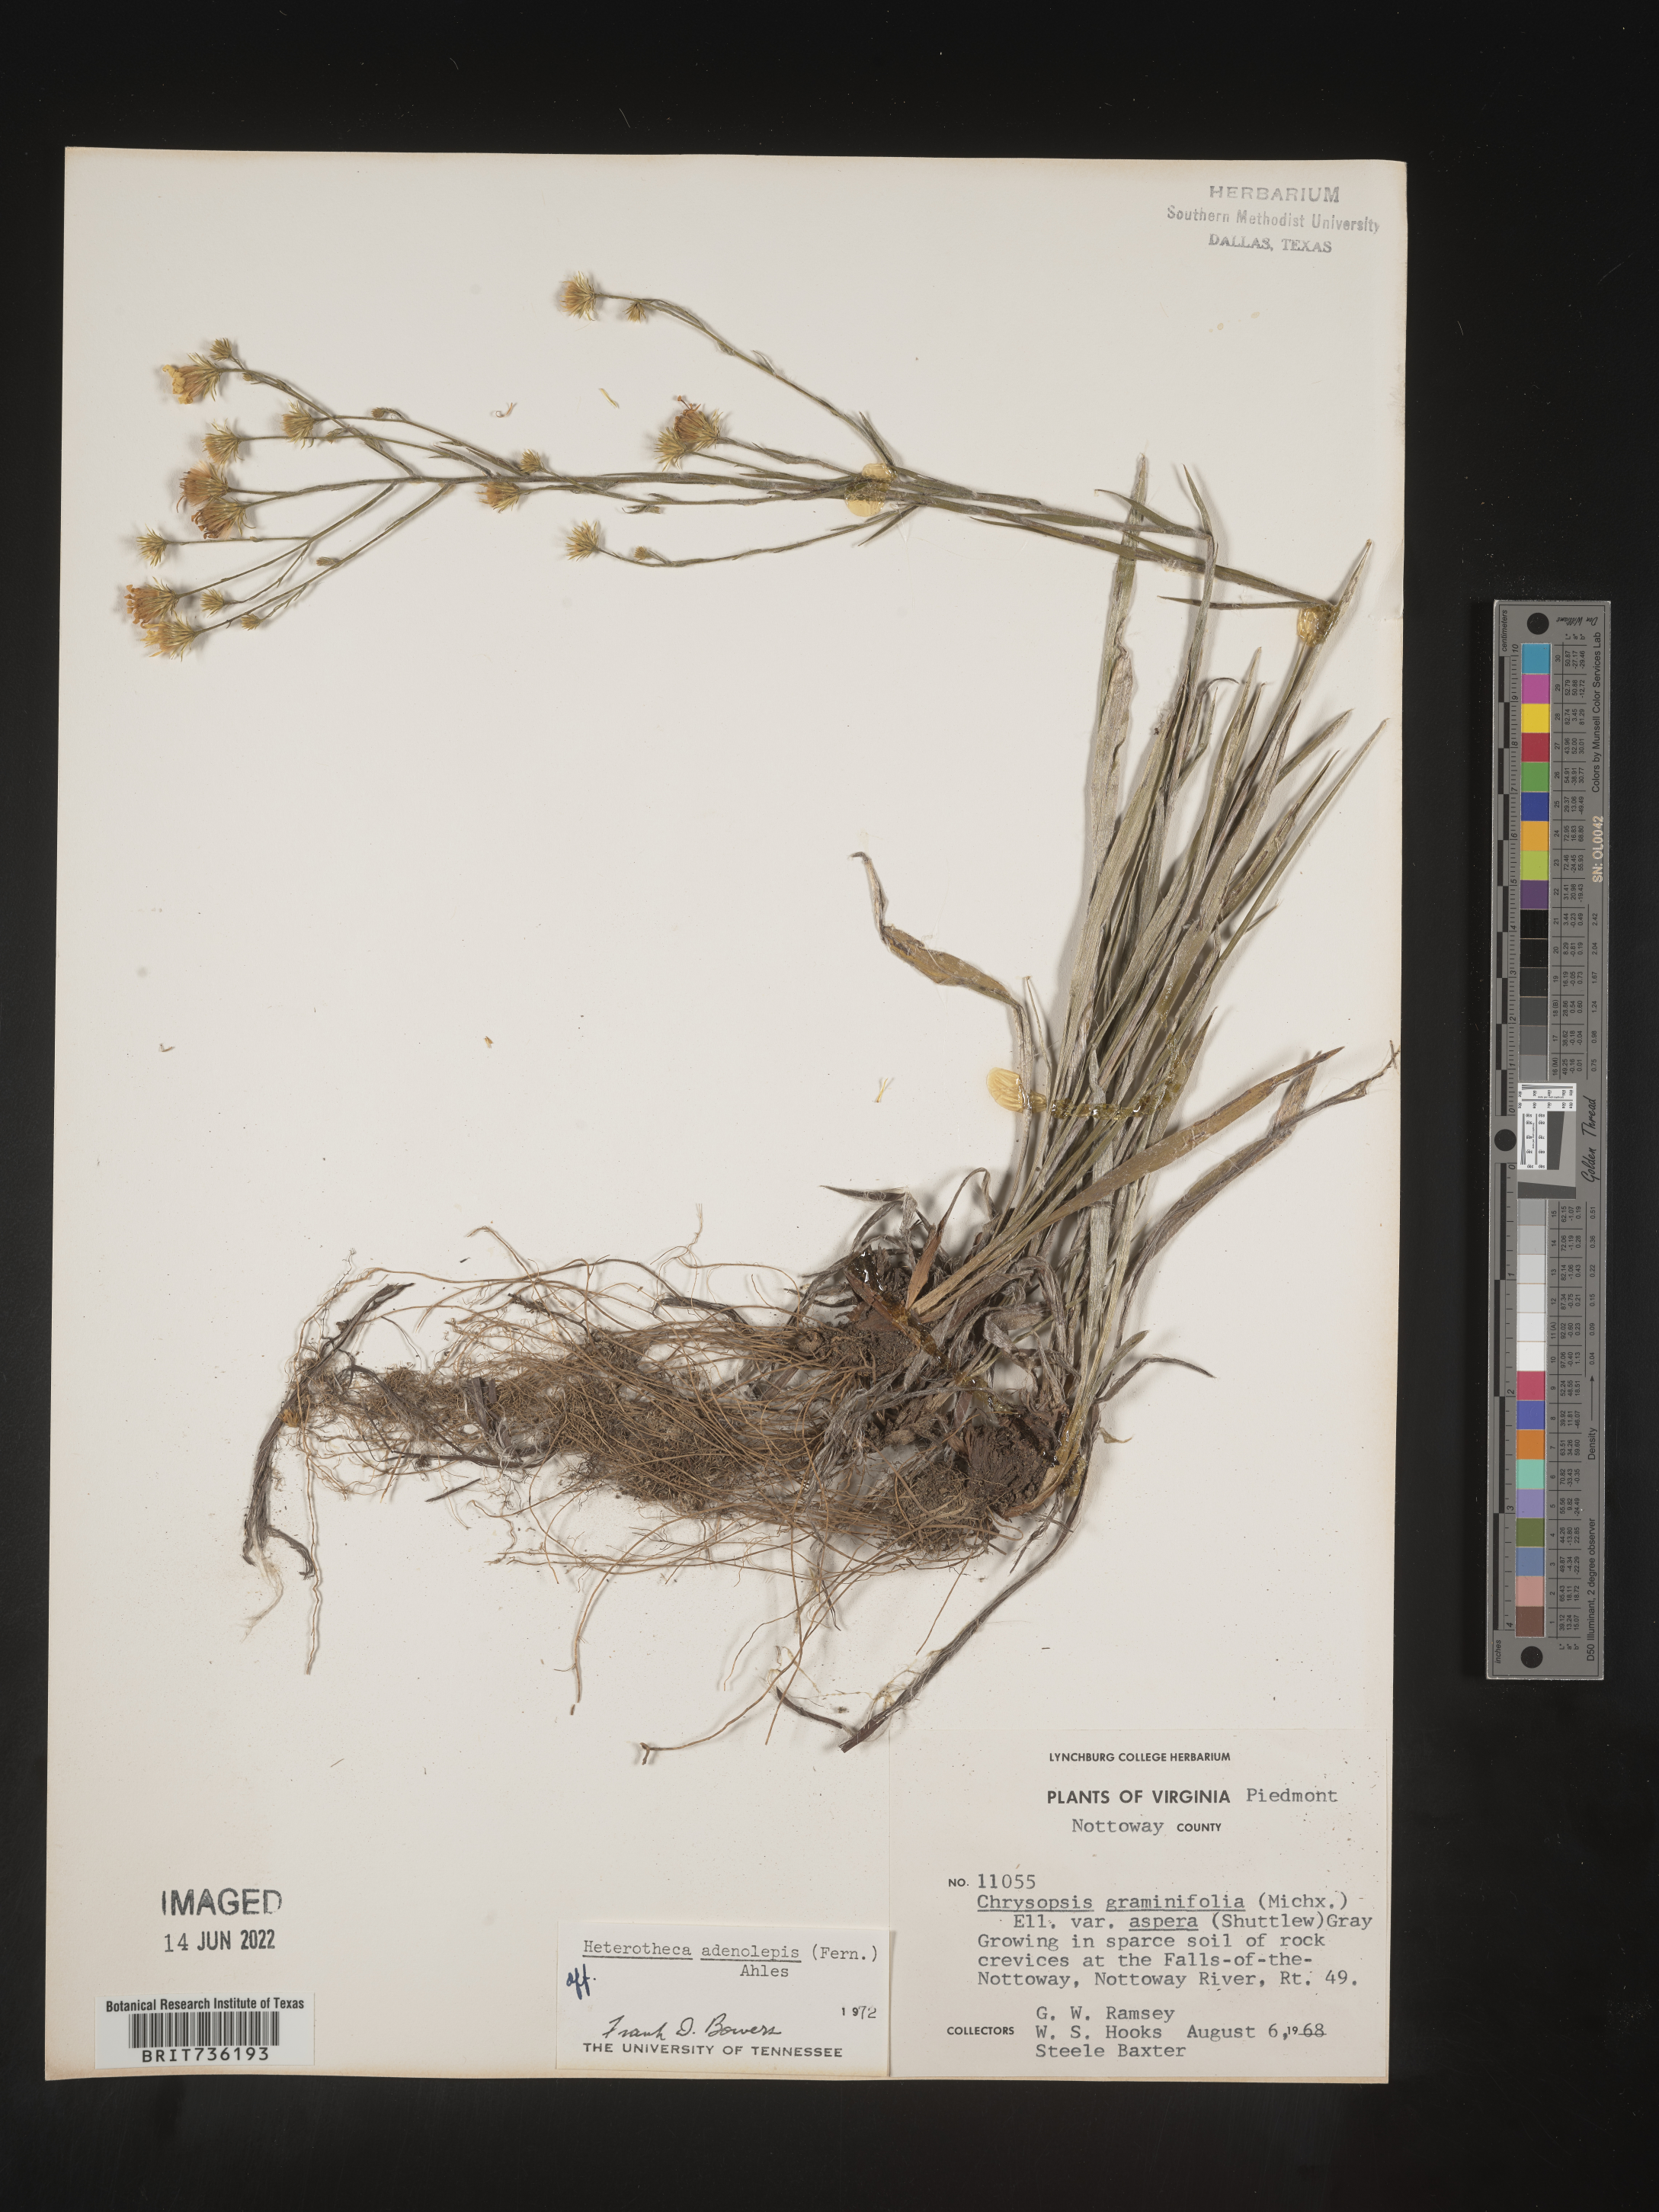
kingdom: Plantae
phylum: Tracheophyta
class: Magnoliopsida
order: Asterales
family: Asteraceae
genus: Pityopsis
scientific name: Pityopsis aspera
